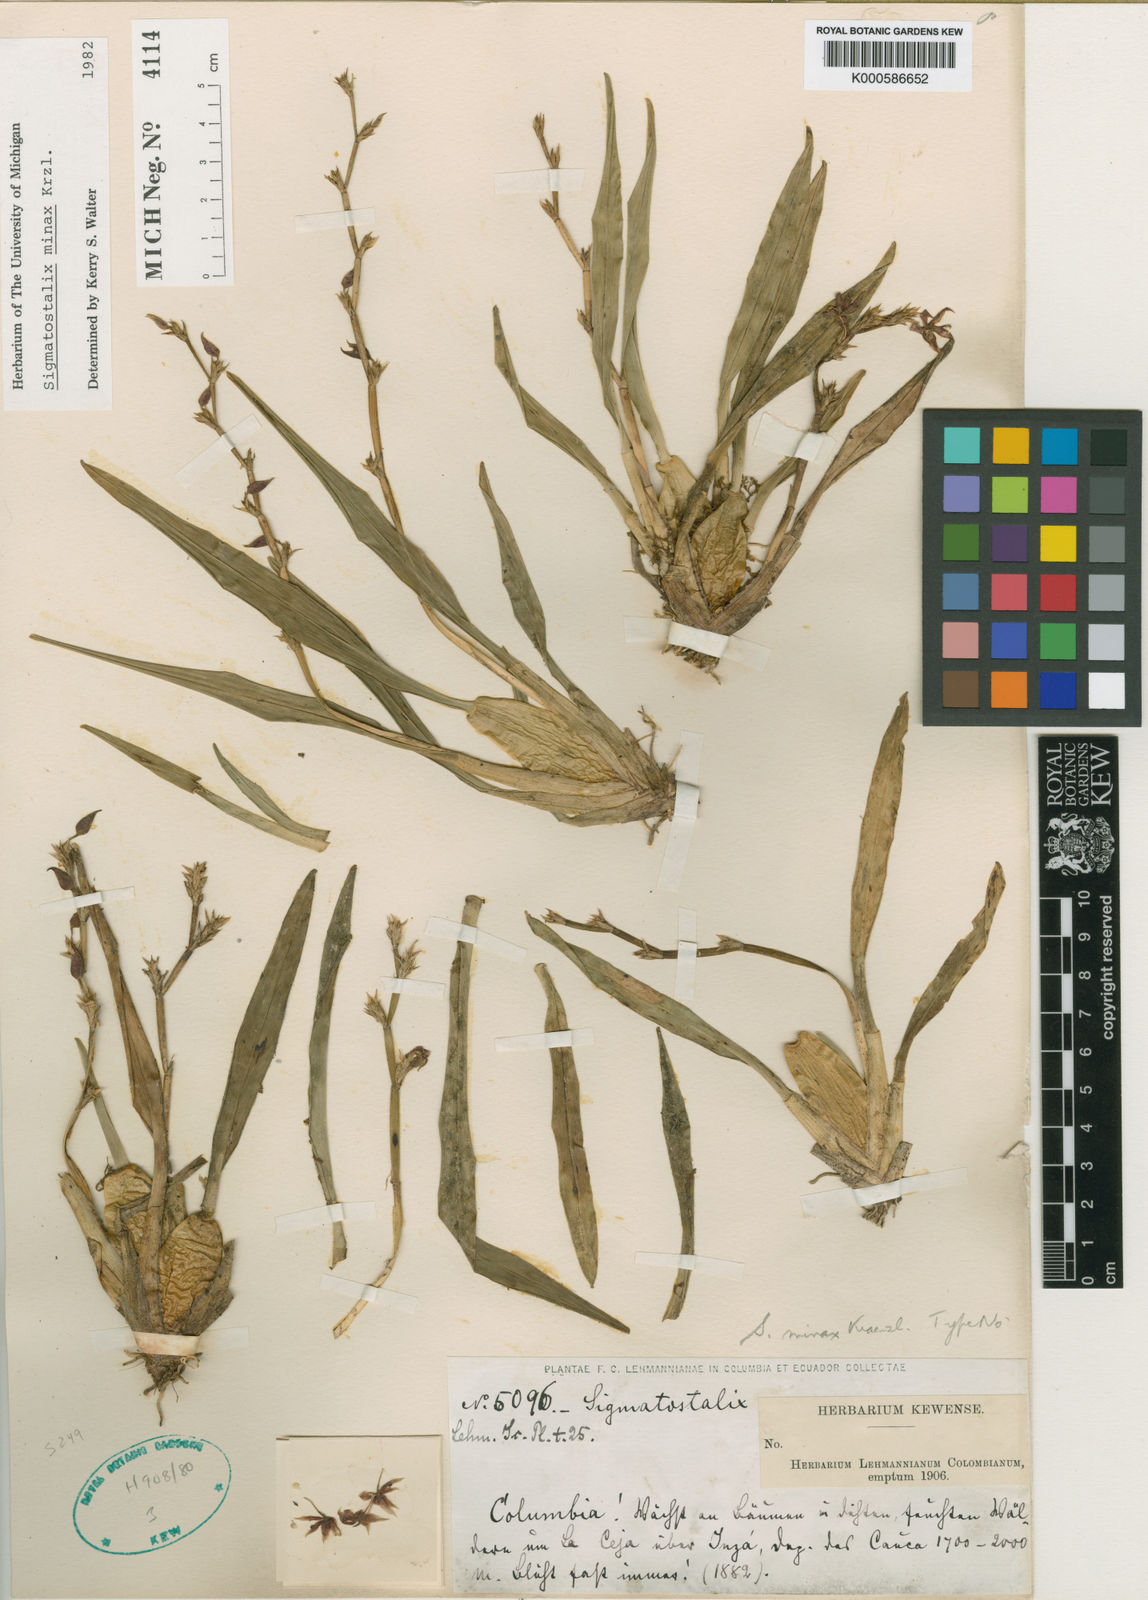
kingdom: Plantae
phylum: Tracheophyta
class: Liliopsida
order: Asparagales
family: Orchidaceae
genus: Oncidium
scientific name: Oncidium minaxoides
